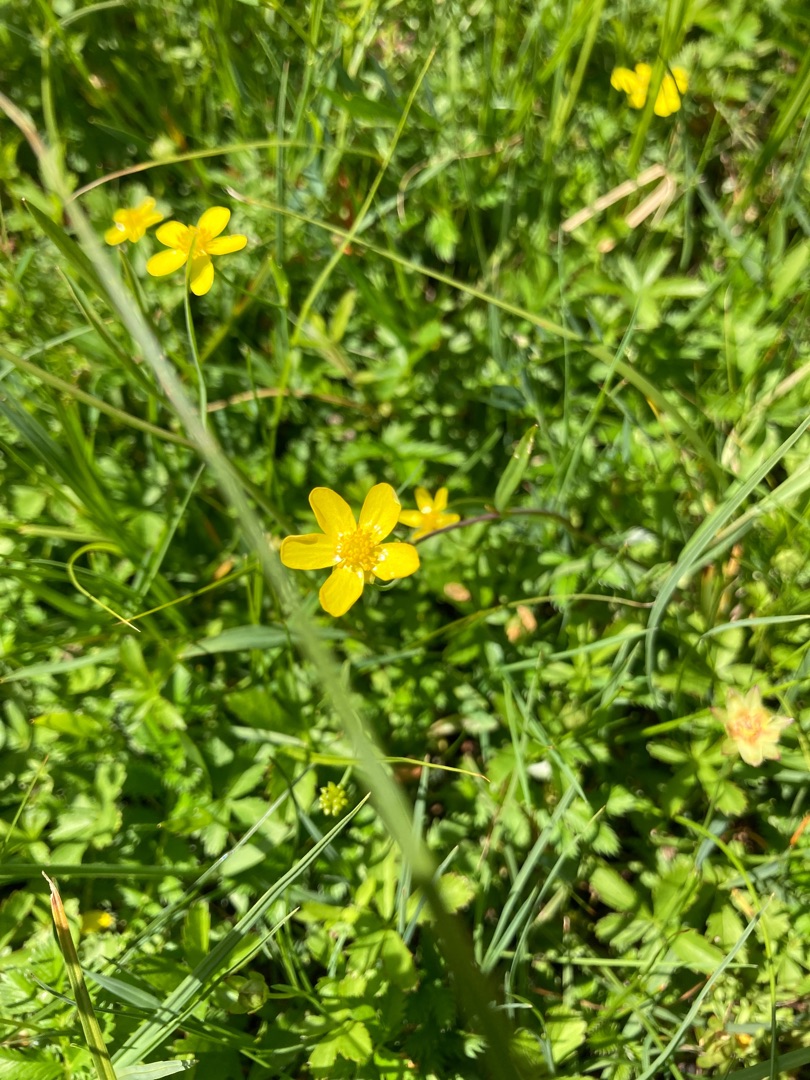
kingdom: Plantae
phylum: Tracheophyta
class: Magnoliopsida
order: Ranunculales
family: Ranunculaceae
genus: Ranunculus
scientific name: Ranunculus flammula
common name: Kær-ranunkel
